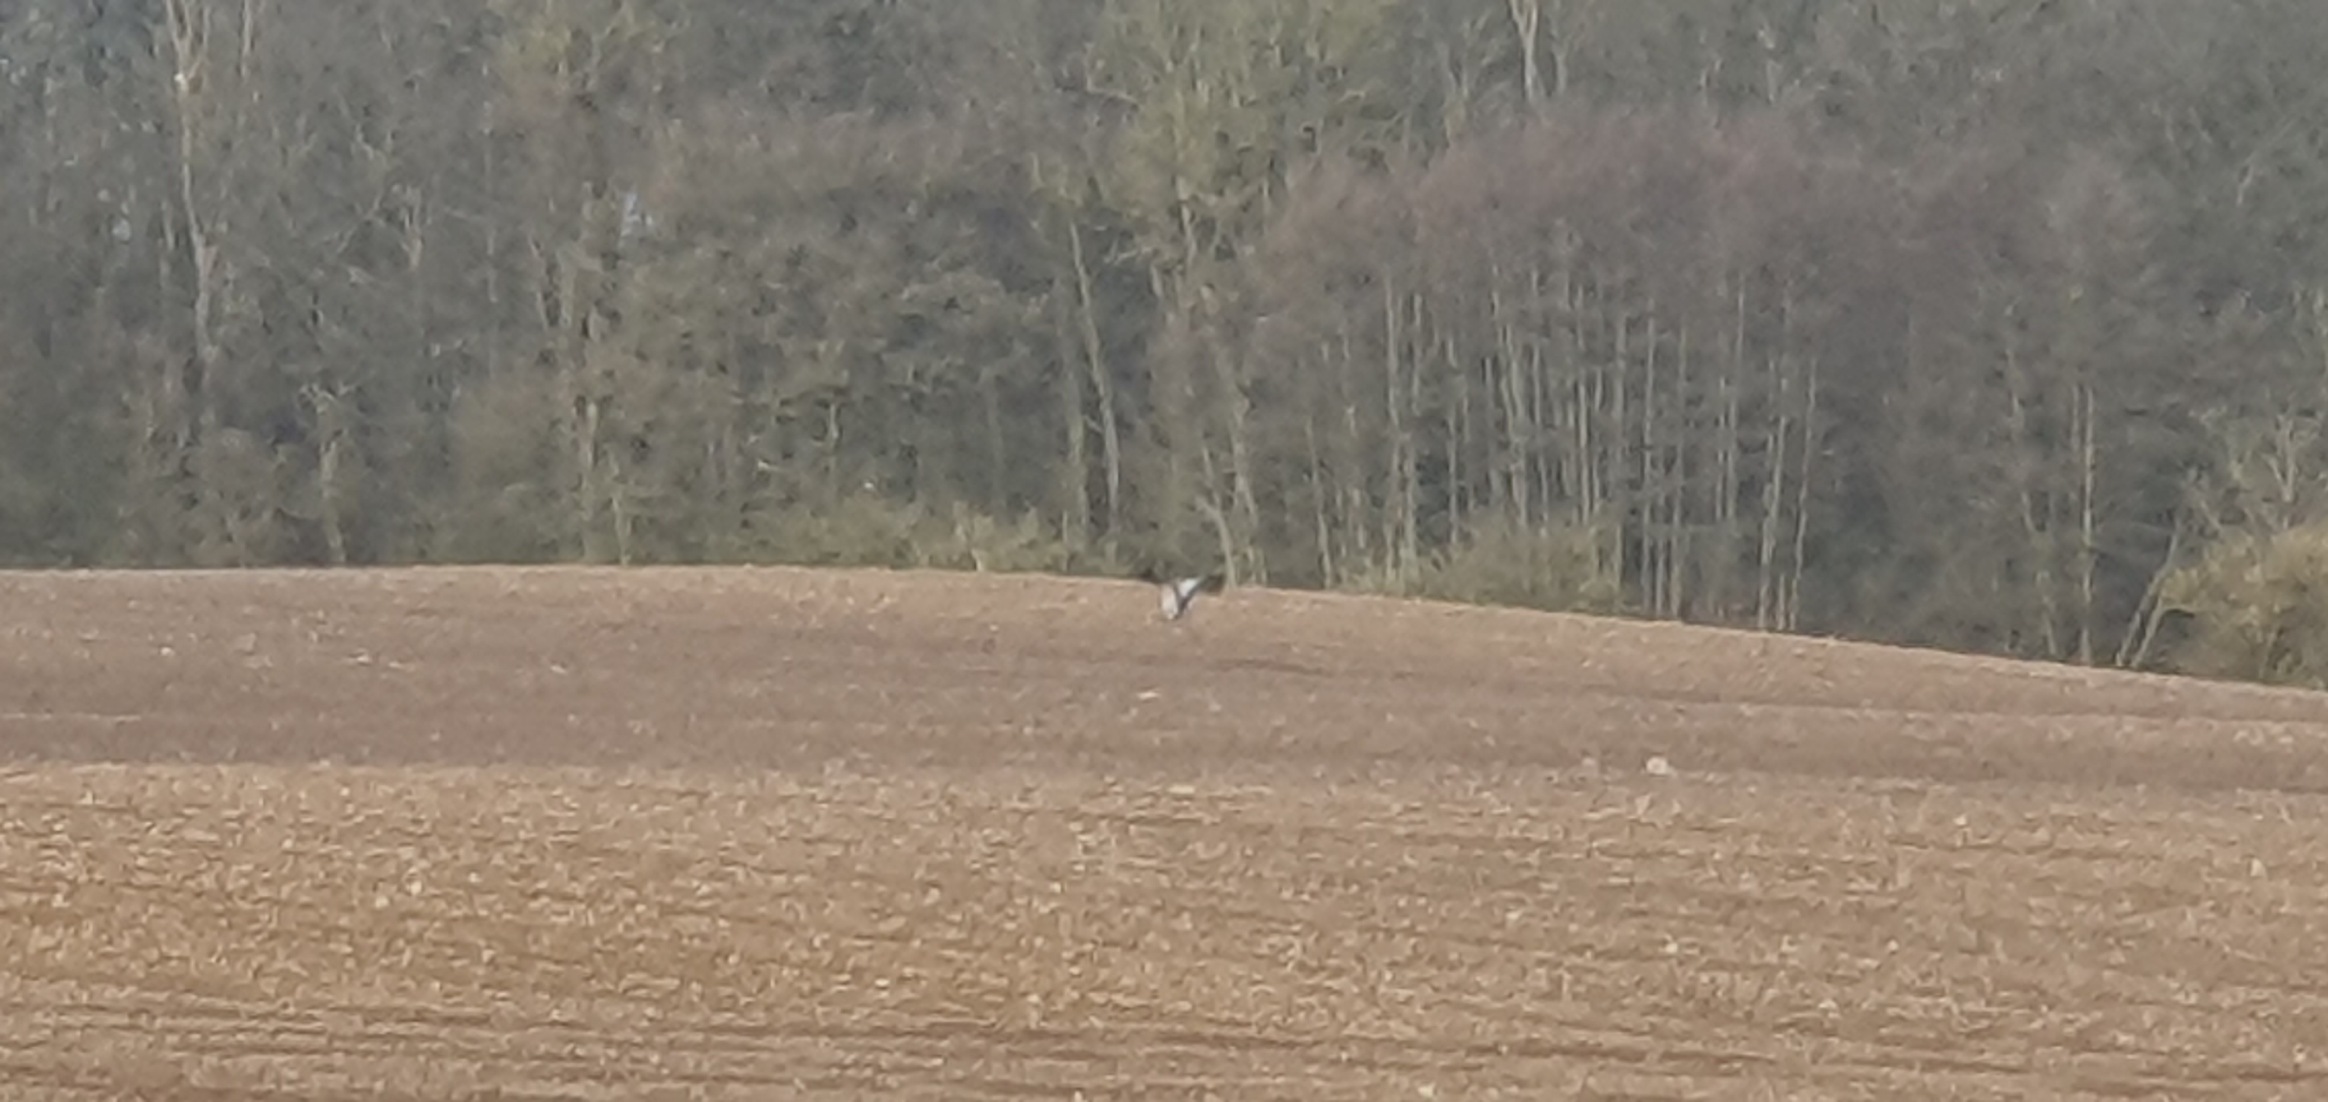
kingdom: Animalia
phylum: Chordata
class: Aves
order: Gruiformes
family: Gruidae
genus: Grus
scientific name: Grus grus
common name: Trane
